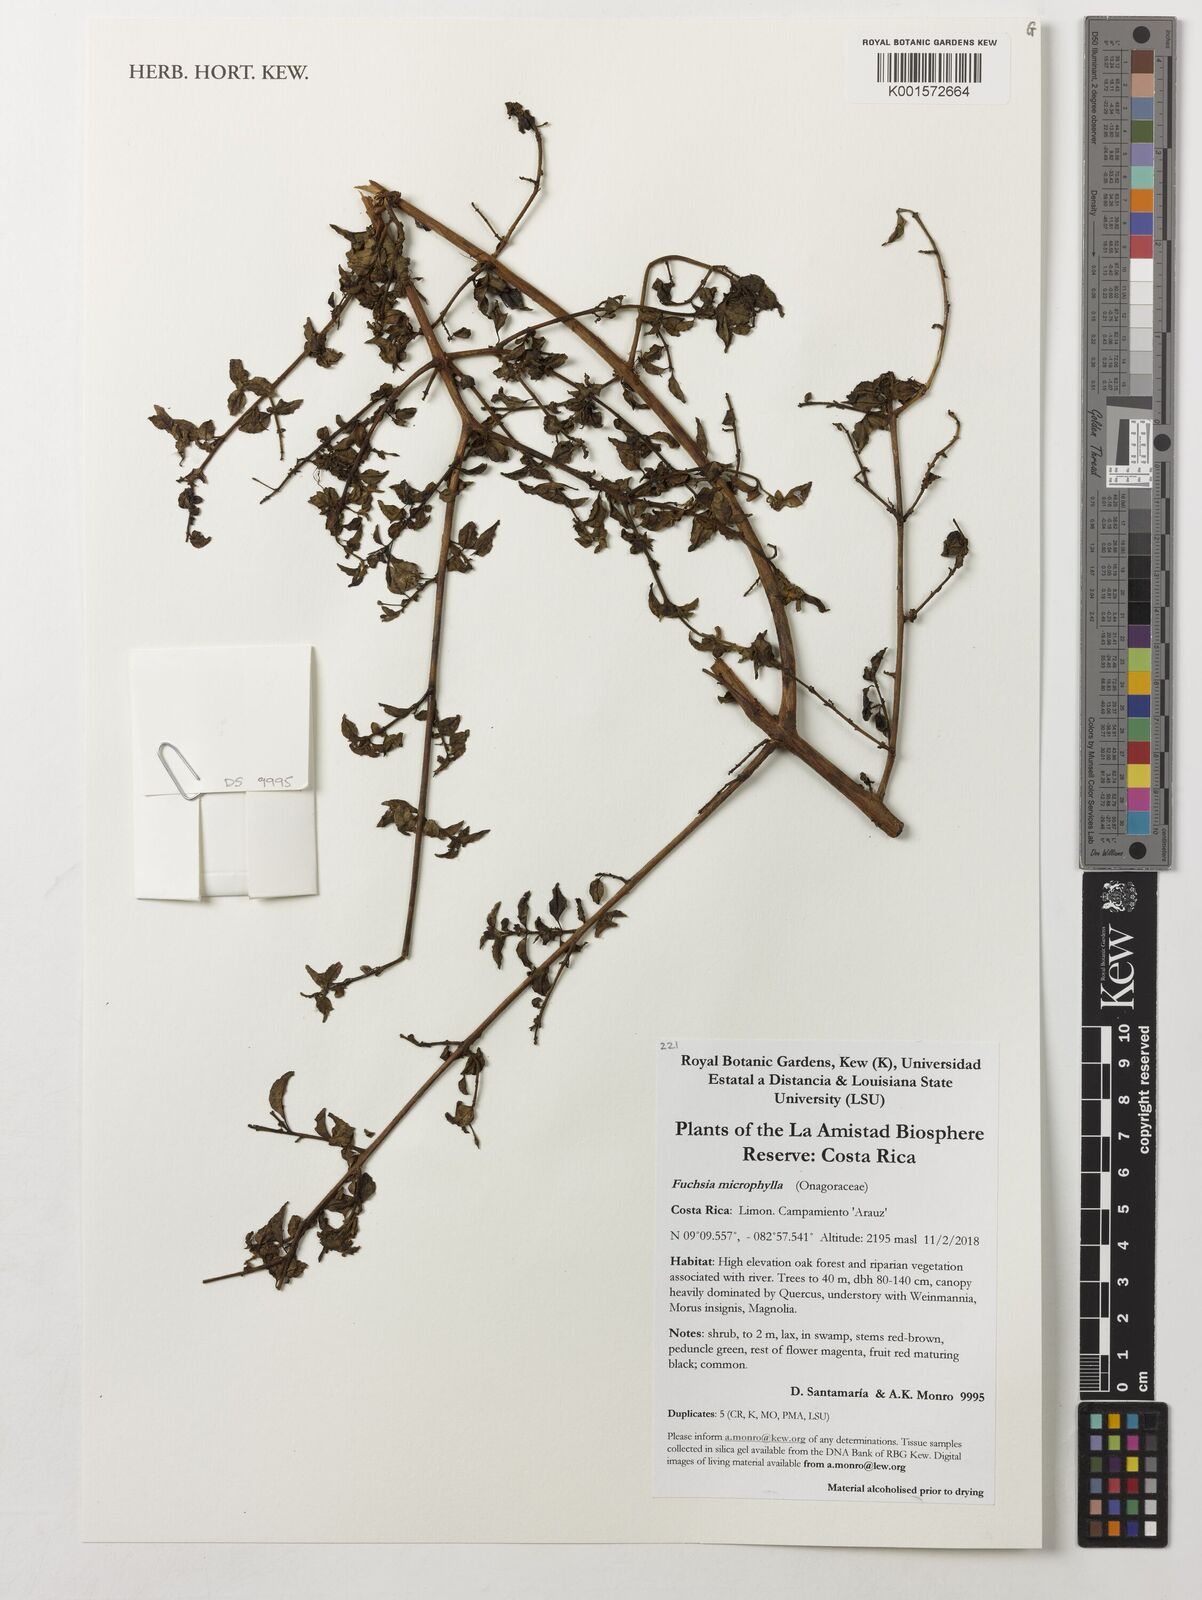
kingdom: Plantae
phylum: Tracheophyta
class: Magnoliopsida
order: Myrtales
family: Onagraceae
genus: Fuchsia
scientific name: Fuchsia microphylla
